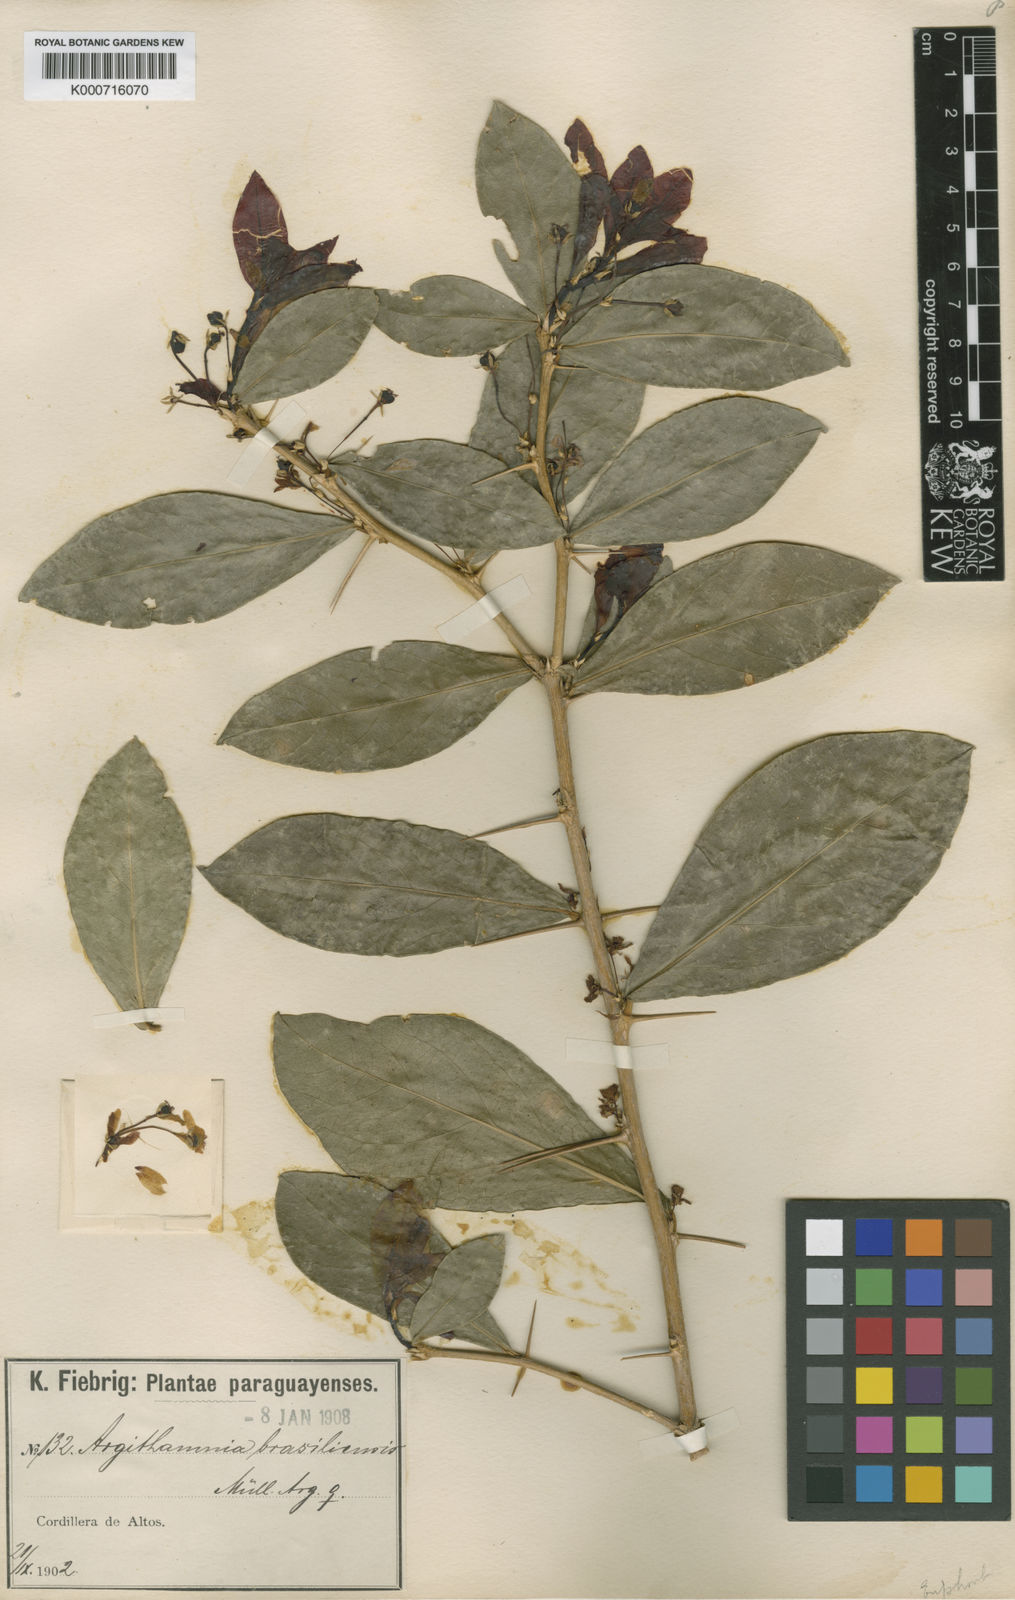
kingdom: Plantae
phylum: Tracheophyta
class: Magnoliopsida
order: Malpighiales
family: Euphorbiaceae
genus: Philyra
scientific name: Philyra brasiliensis
